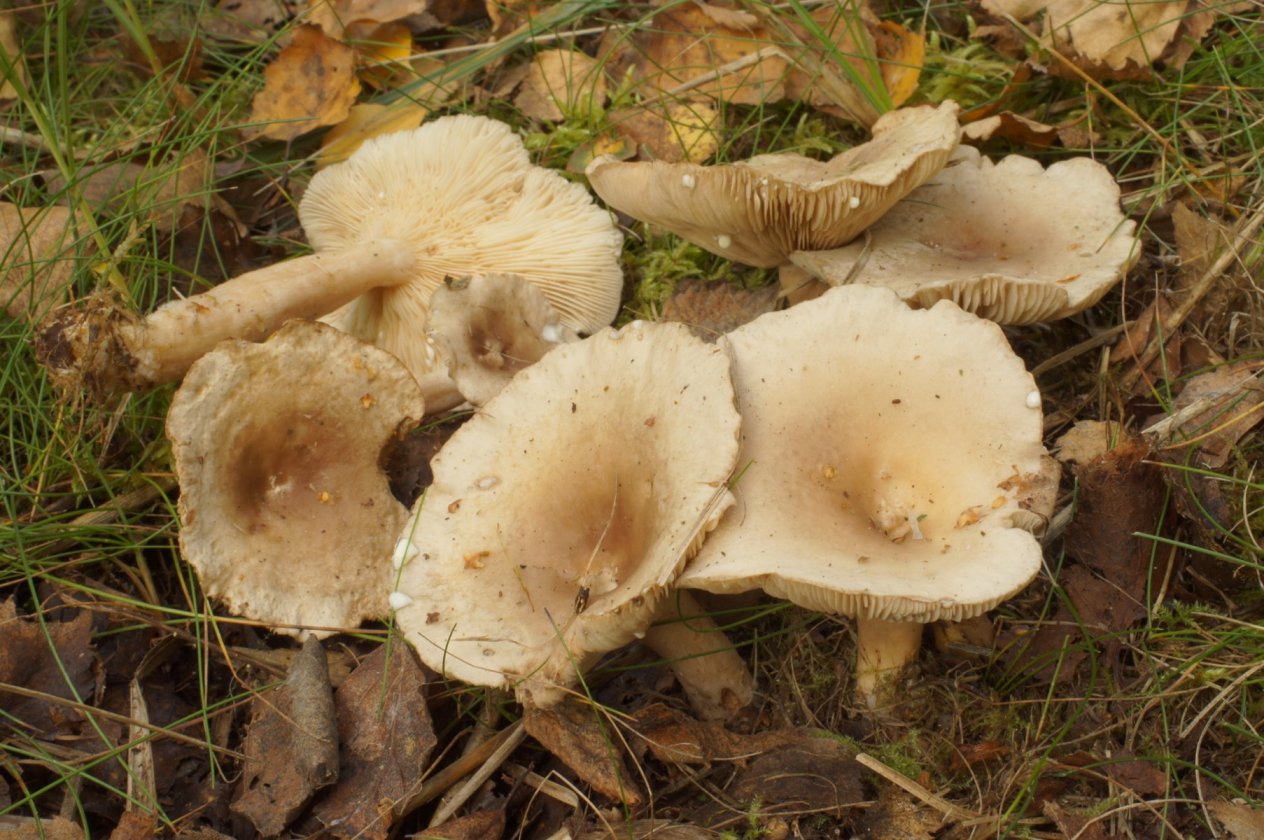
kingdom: Fungi
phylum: Basidiomycota
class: Agaricomycetes
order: Russulales
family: Russulaceae
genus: Lactarius
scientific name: Lactarius vietus
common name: violetgrå mælkehat
